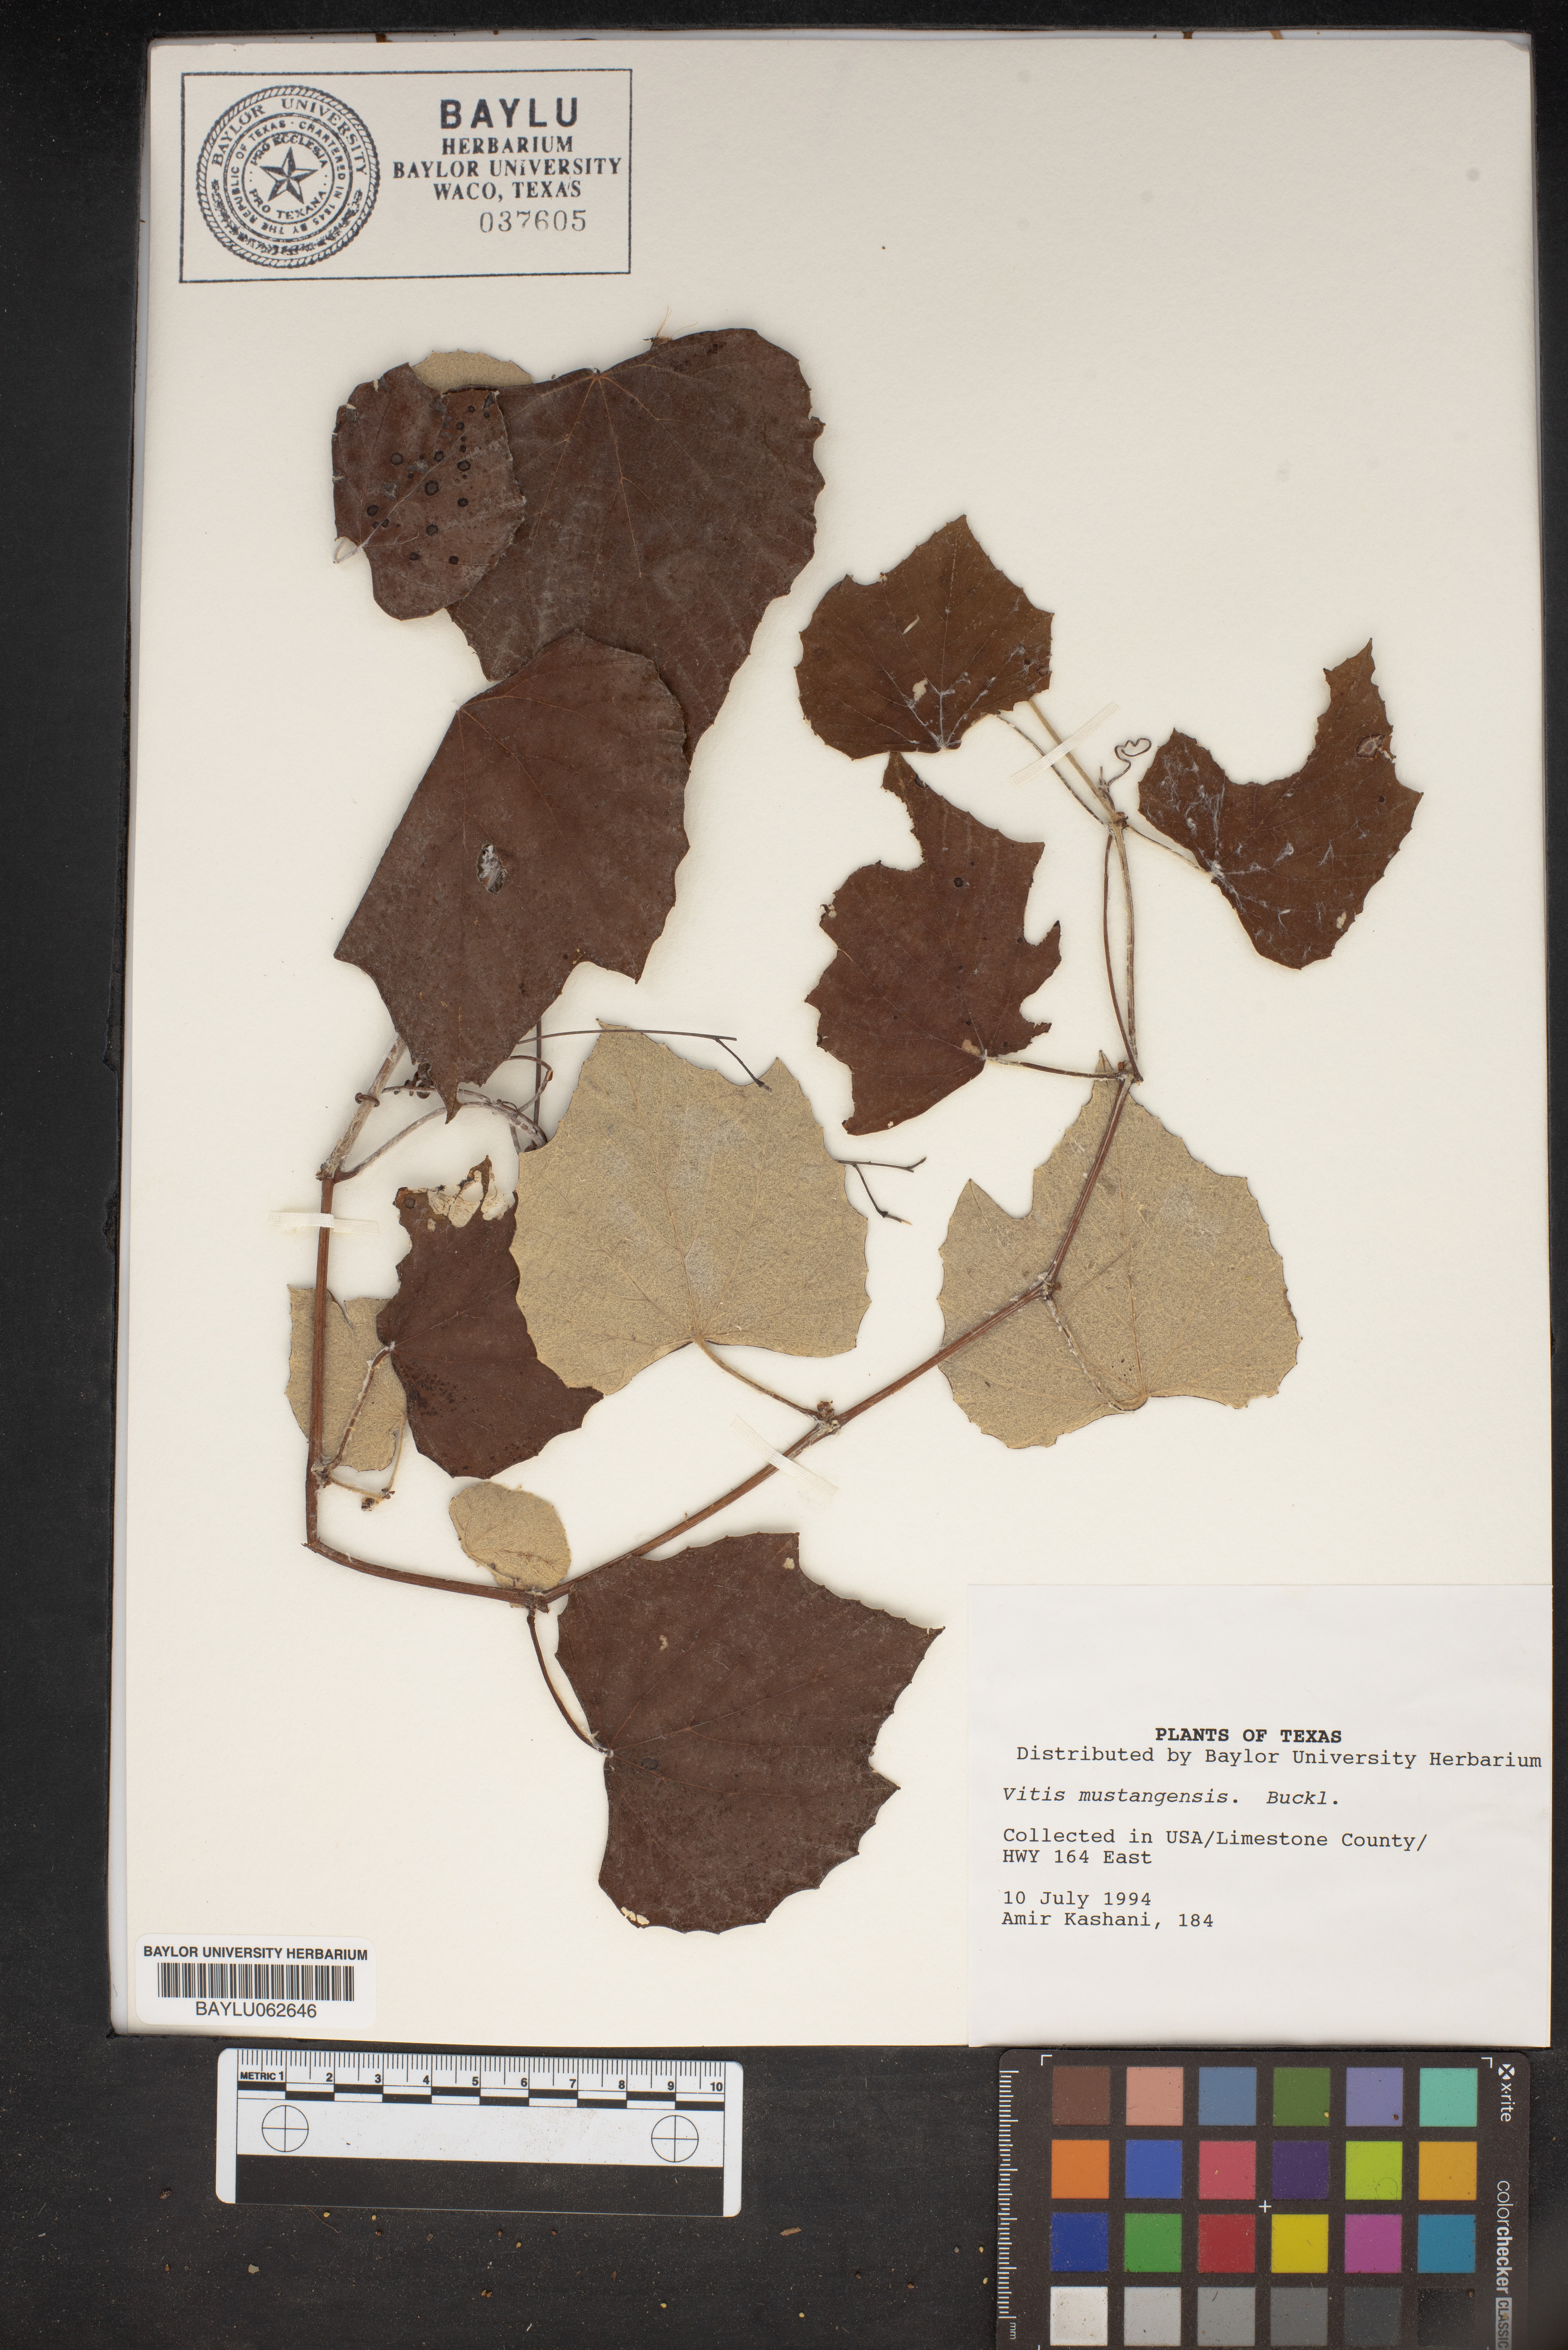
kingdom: Plantae
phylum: Tracheophyta
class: Magnoliopsida
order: Vitales
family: Vitaceae
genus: Vitis
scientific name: Vitis mustangensis
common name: Mustang grape
